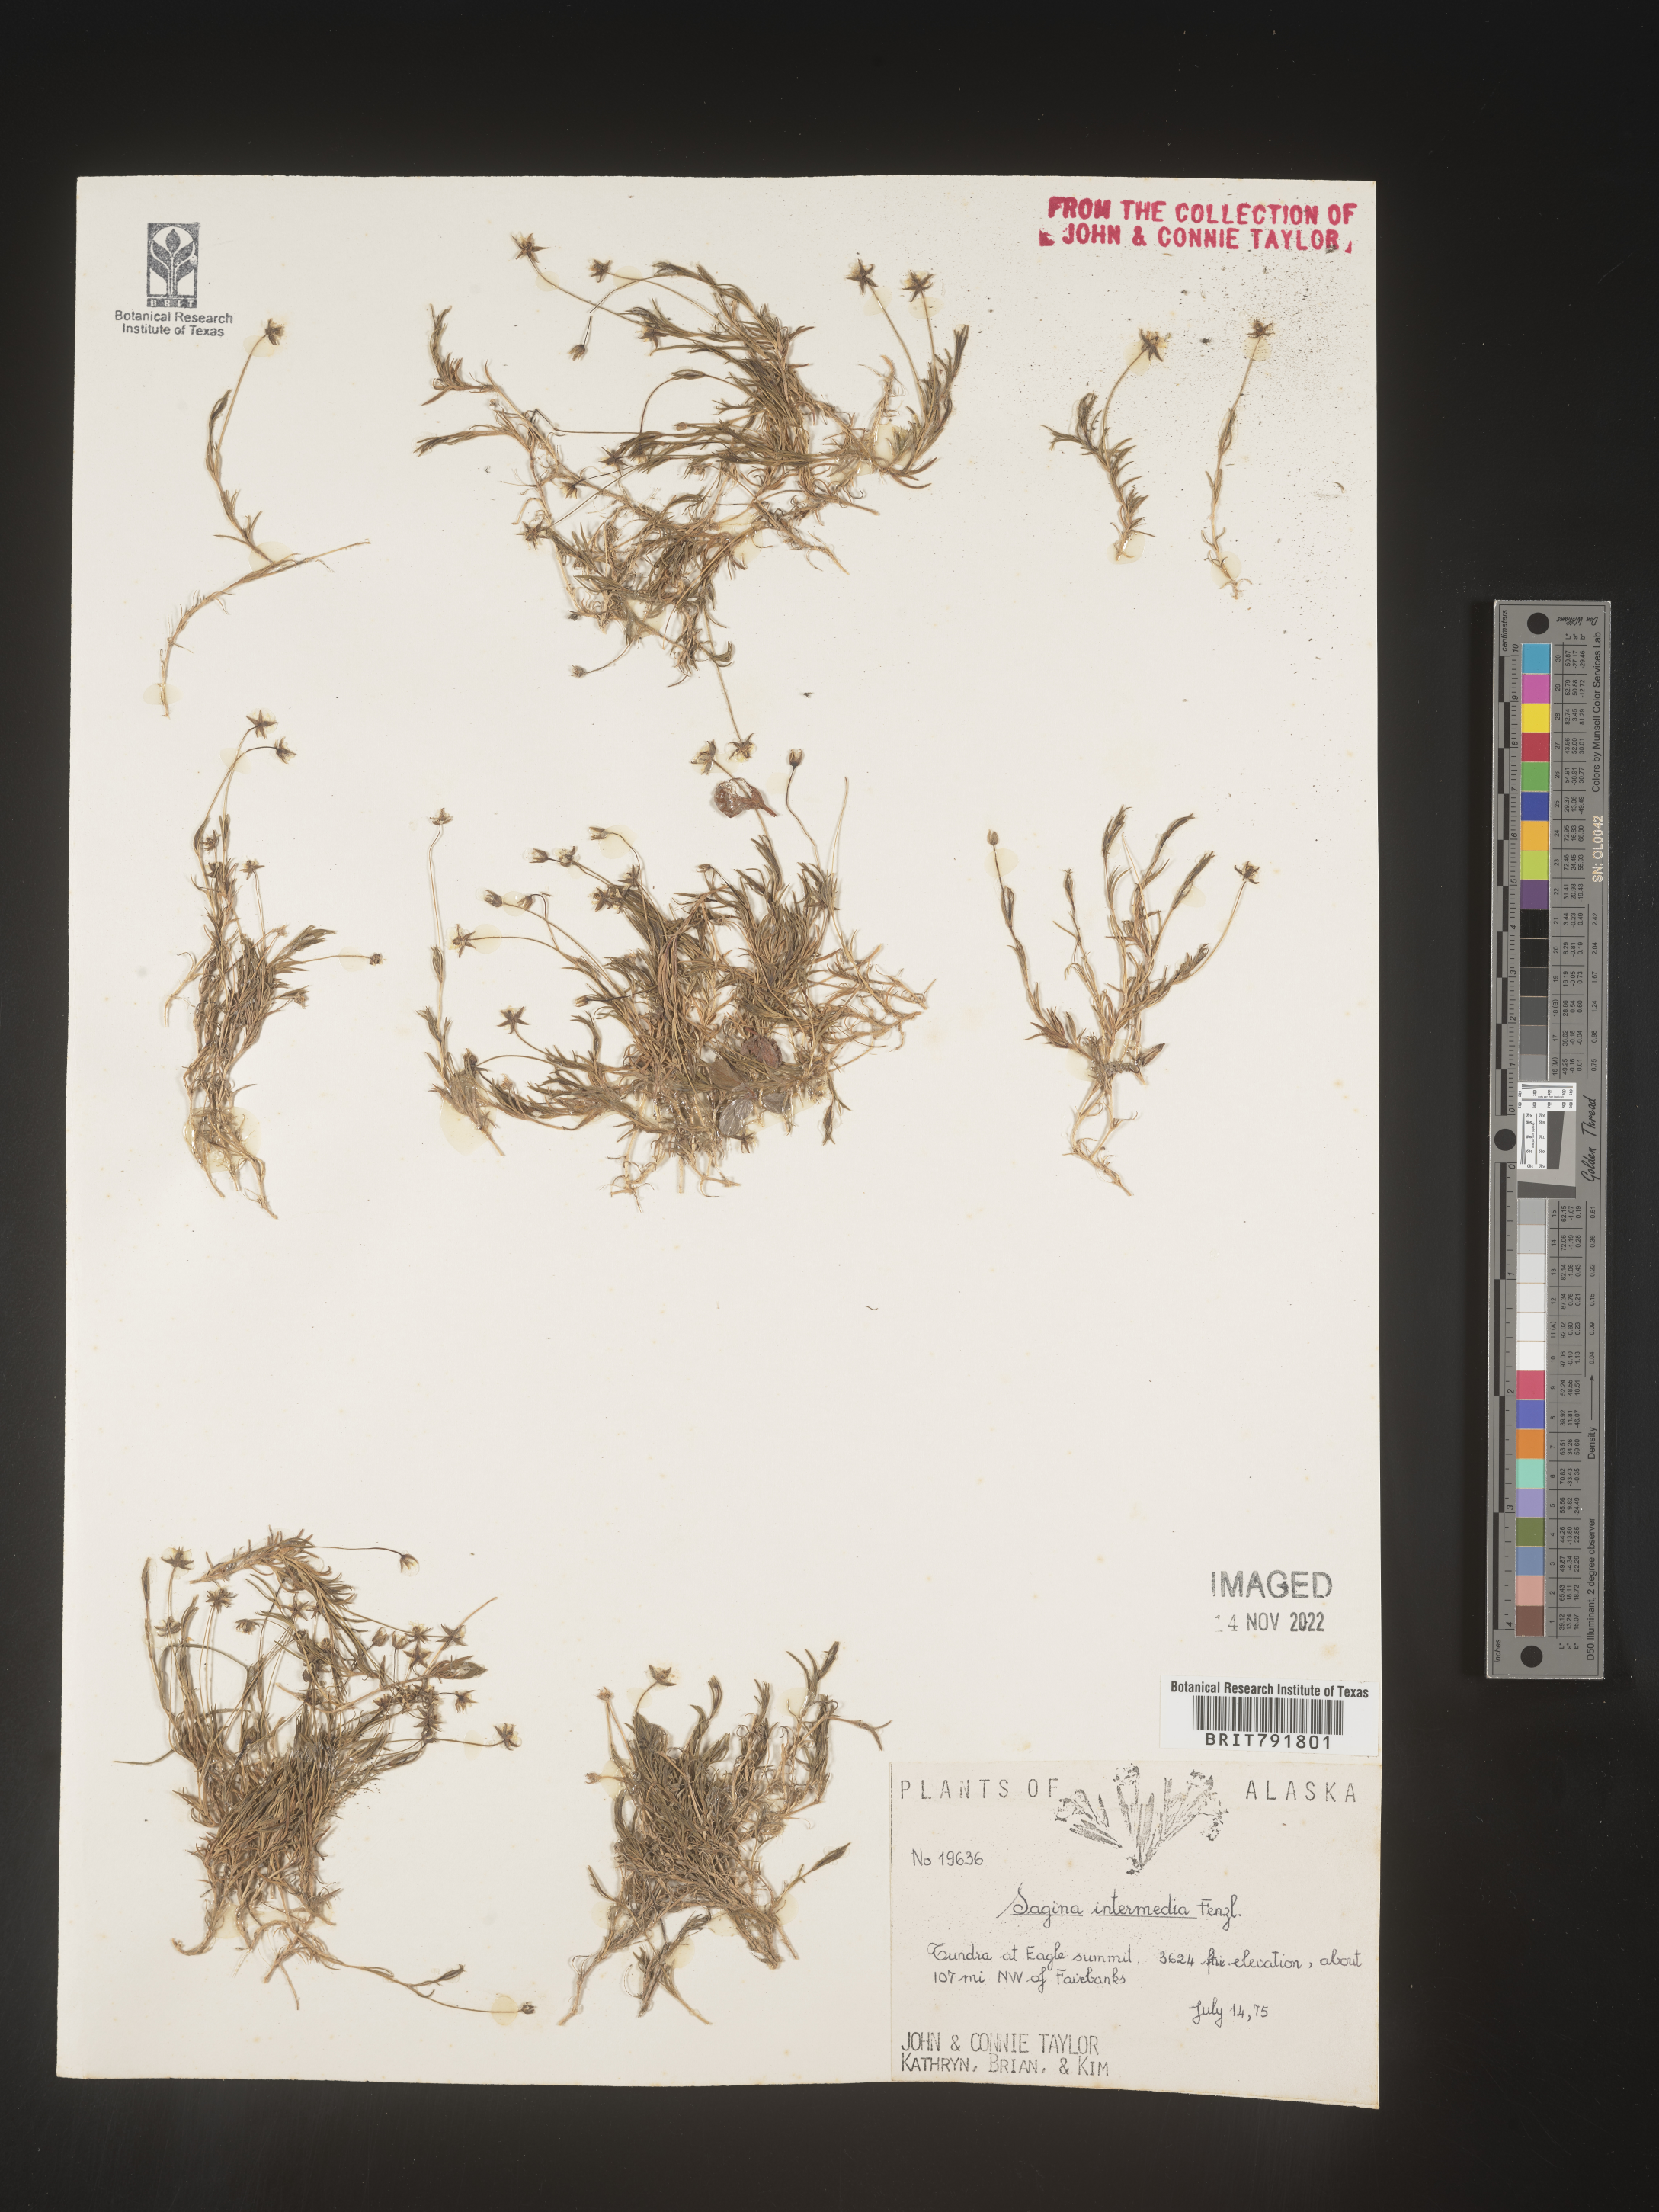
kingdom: Plantae
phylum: Tracheophyta
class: Magnoliopsida
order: Caryophyllales
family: Caryophyllaceae
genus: Sagina
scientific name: Sagina
